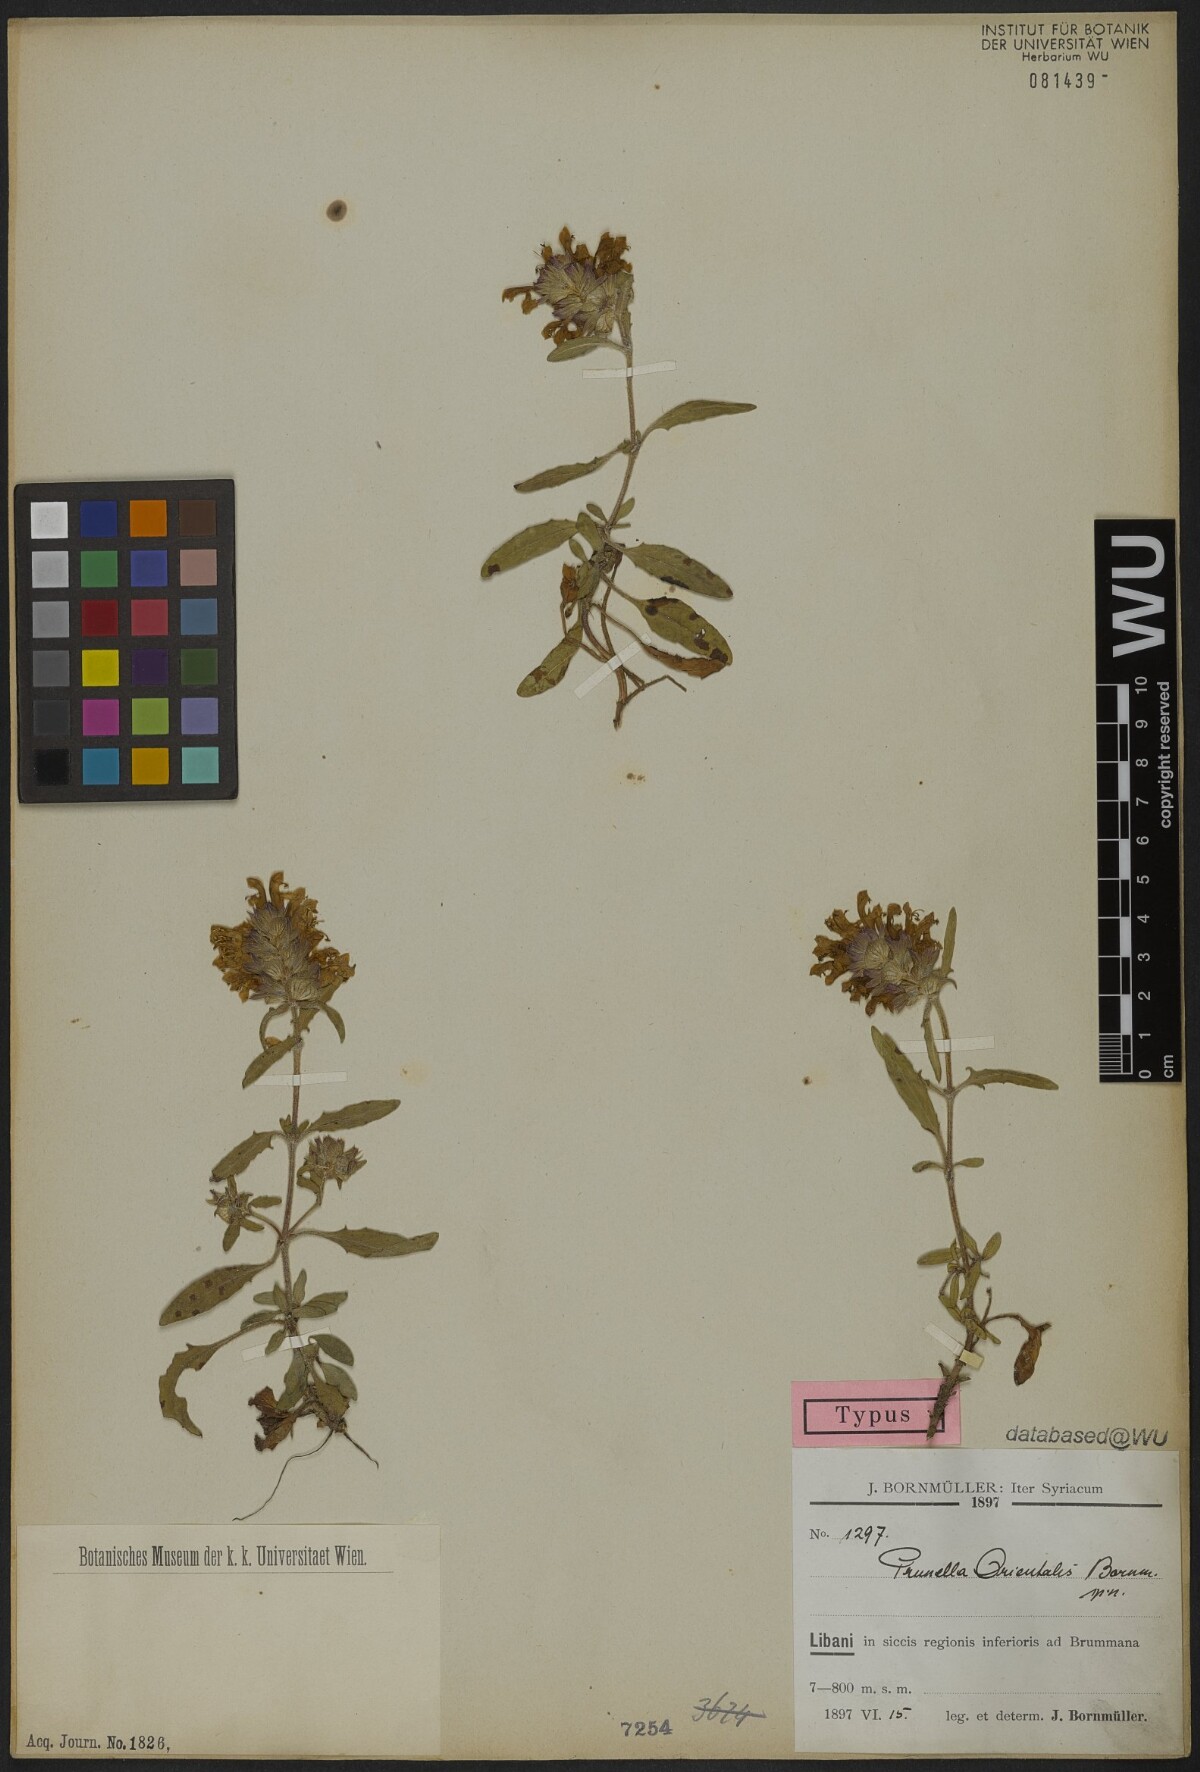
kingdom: Plantae
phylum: Tracheophyta
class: Magnoliopsida
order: Lamiales
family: Lamiaceae
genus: Prunella
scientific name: Prunella orientalis
